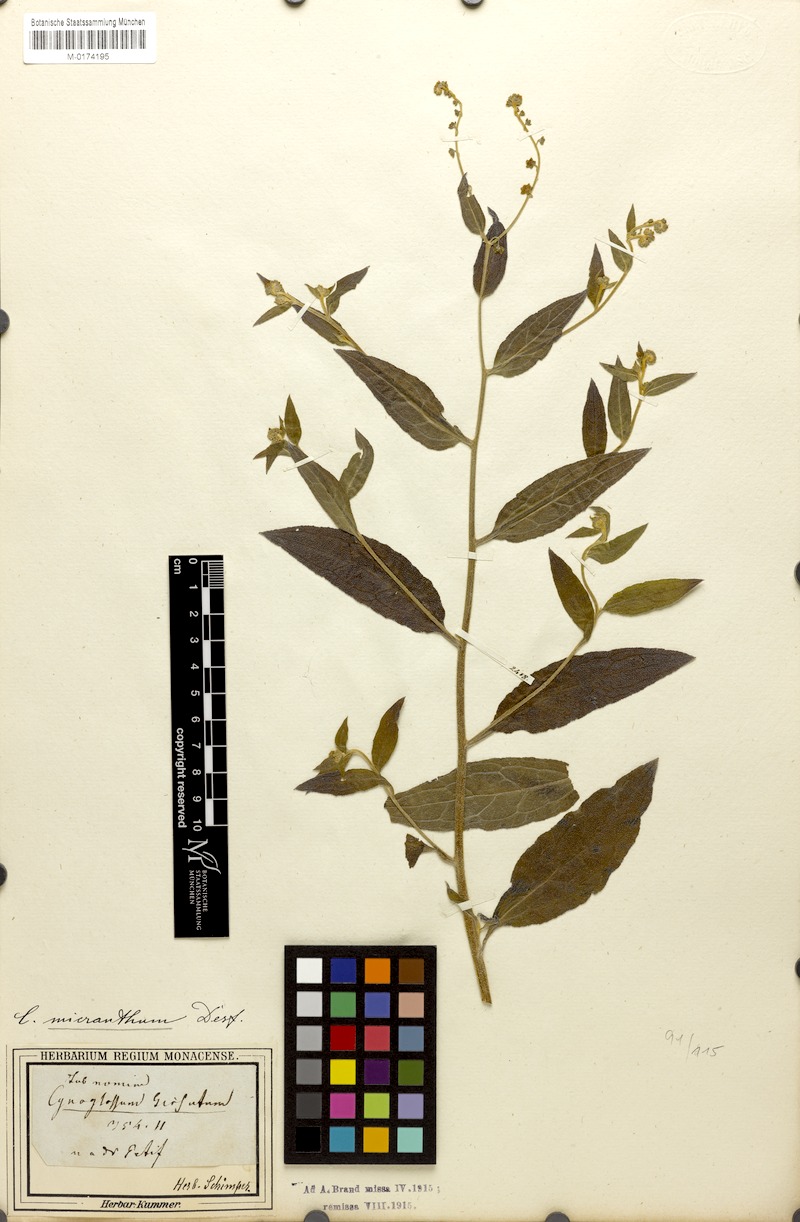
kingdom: Plantae
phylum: Tracheophyta
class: Magnoliopsida
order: Boraginales
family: Boraginaceae
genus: Paracynoglossum
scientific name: Paracynoglossum lanceolatum
